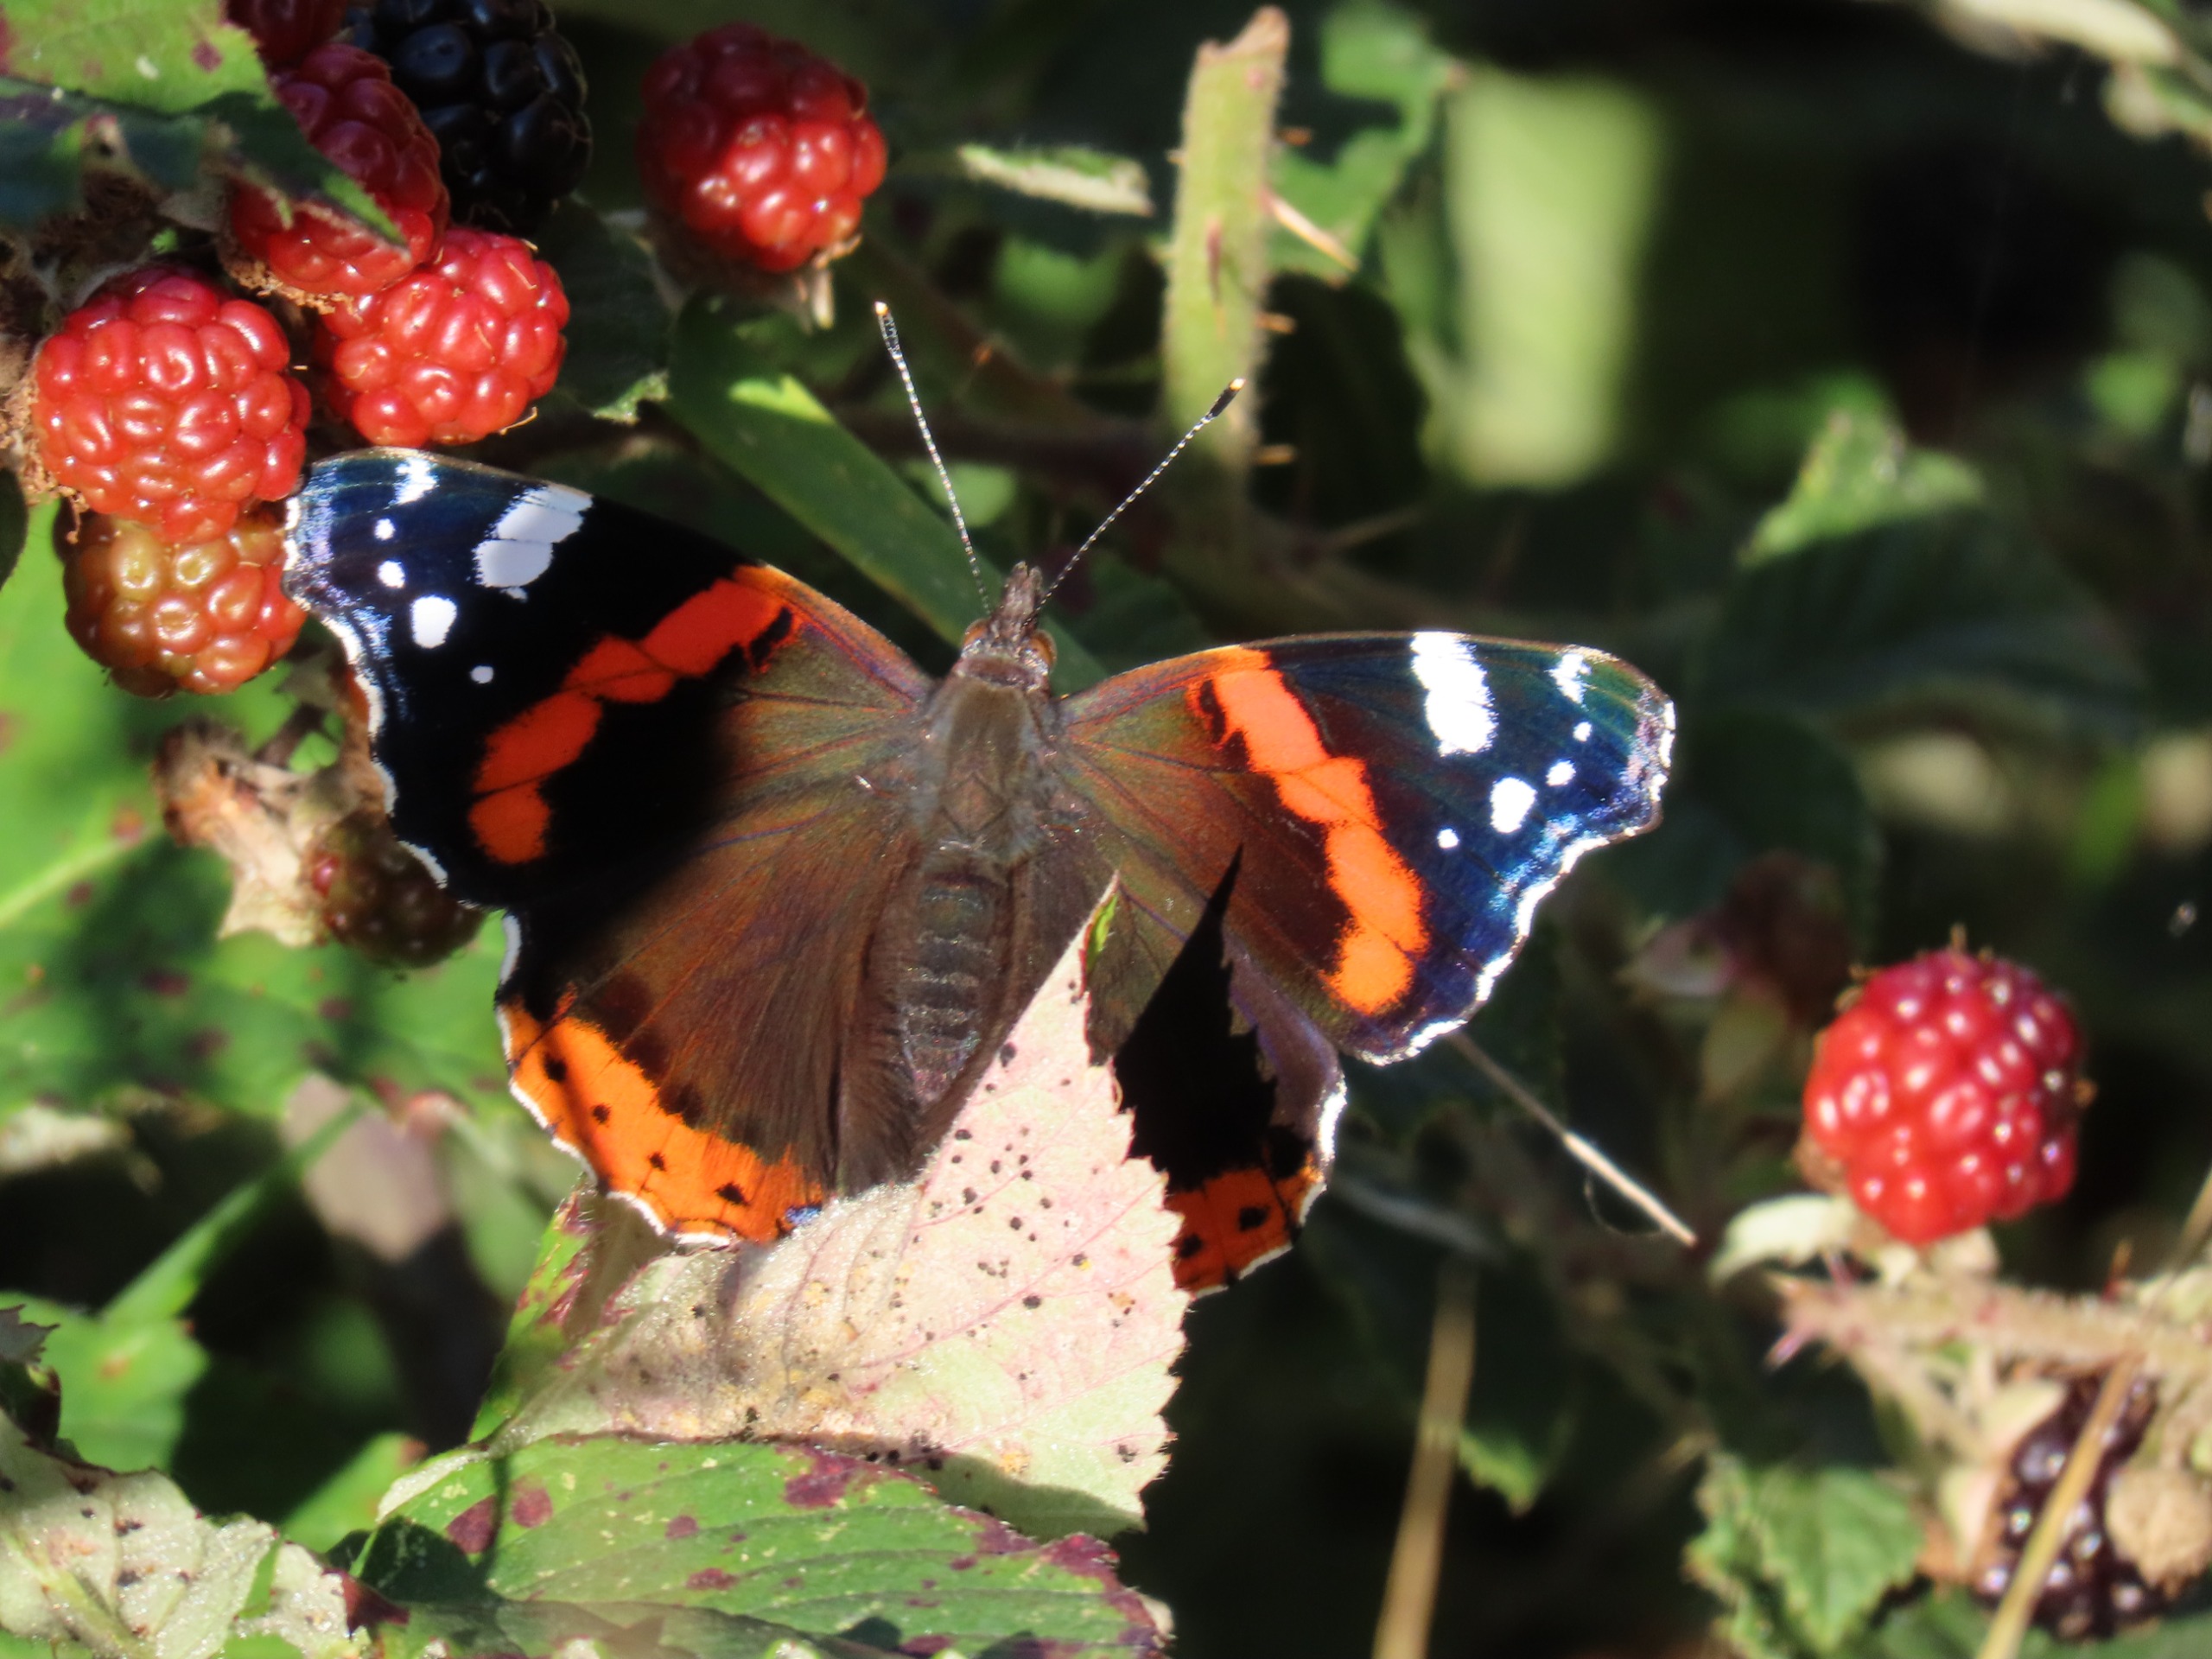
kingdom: Animalia
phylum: Arthropoda
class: Insecta
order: Lepidoptera
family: Nymphalidae
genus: Vanessa
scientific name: Vanessa atalanta
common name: Admiral
